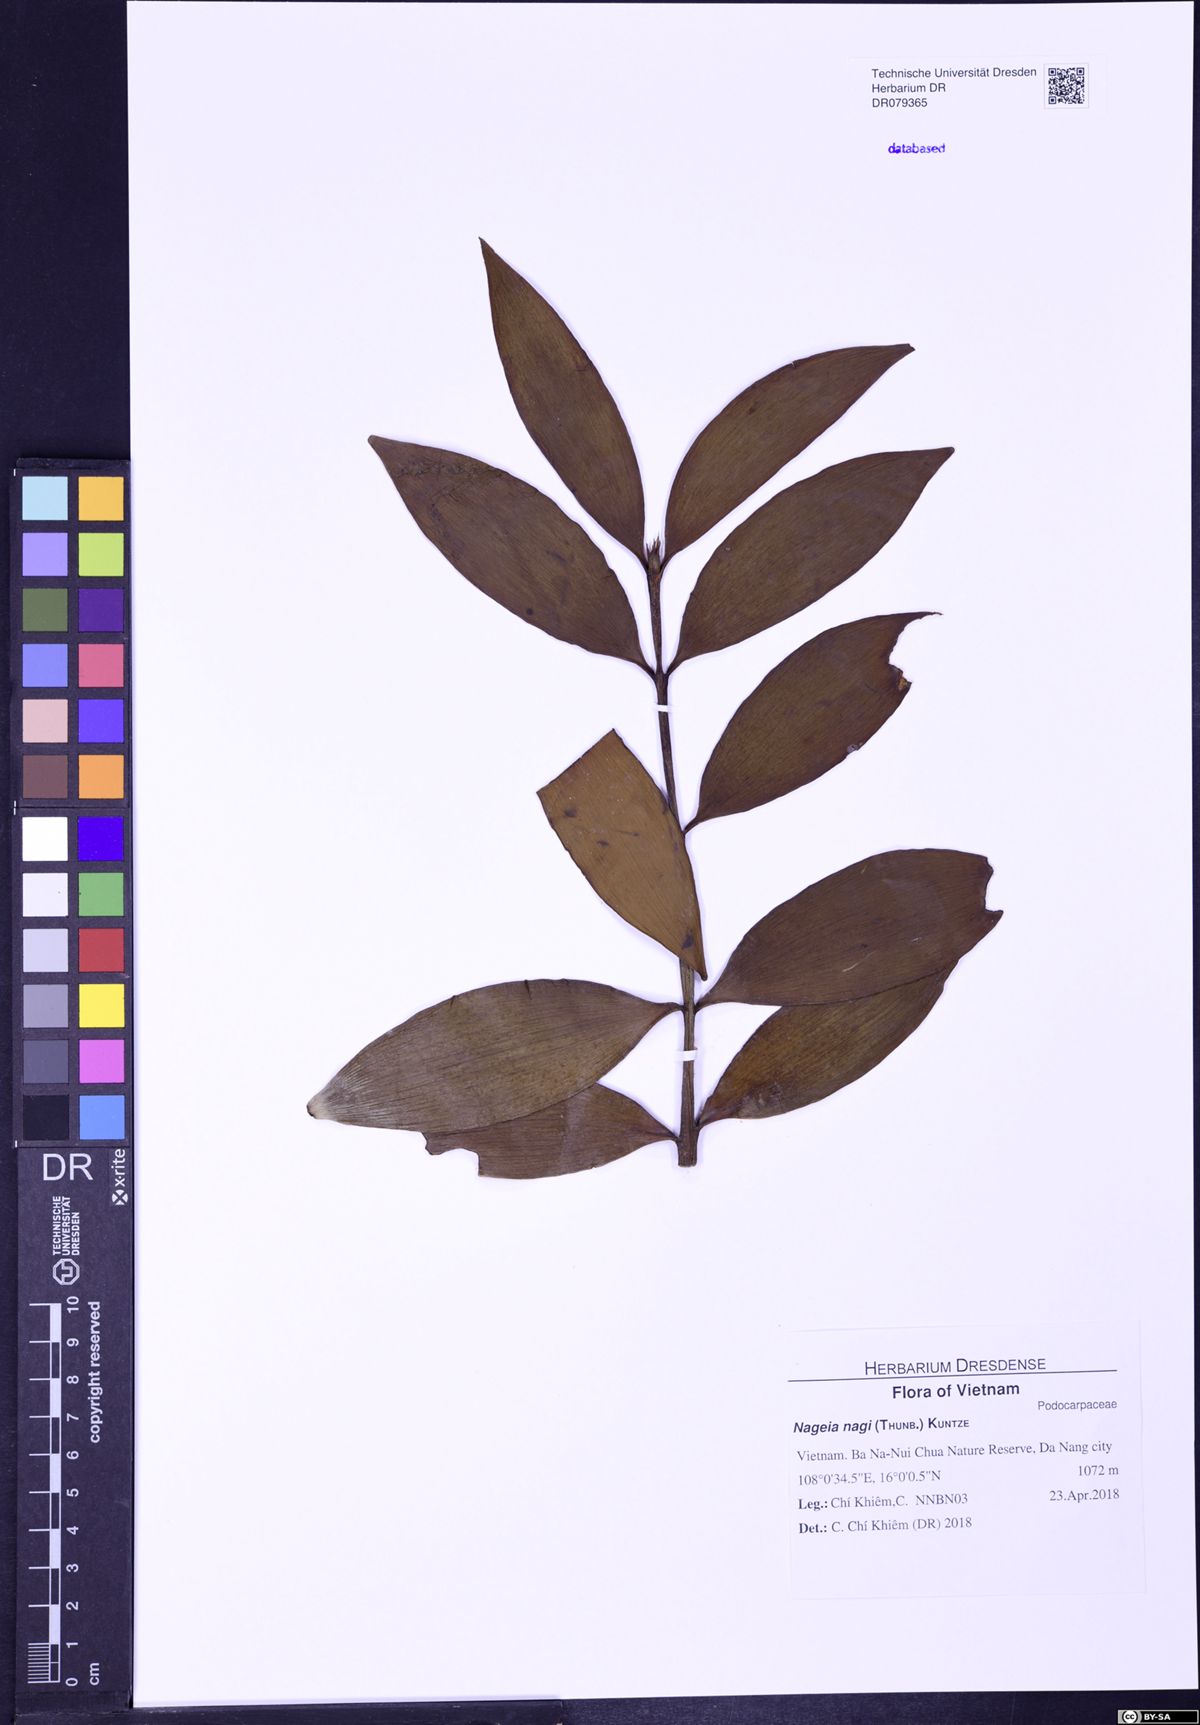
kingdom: Plantae
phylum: Tracheophyta
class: Pinopsida
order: Pinales
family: Podocarpaceae
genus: Nageia
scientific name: Nageia nagi
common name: Kaphal
